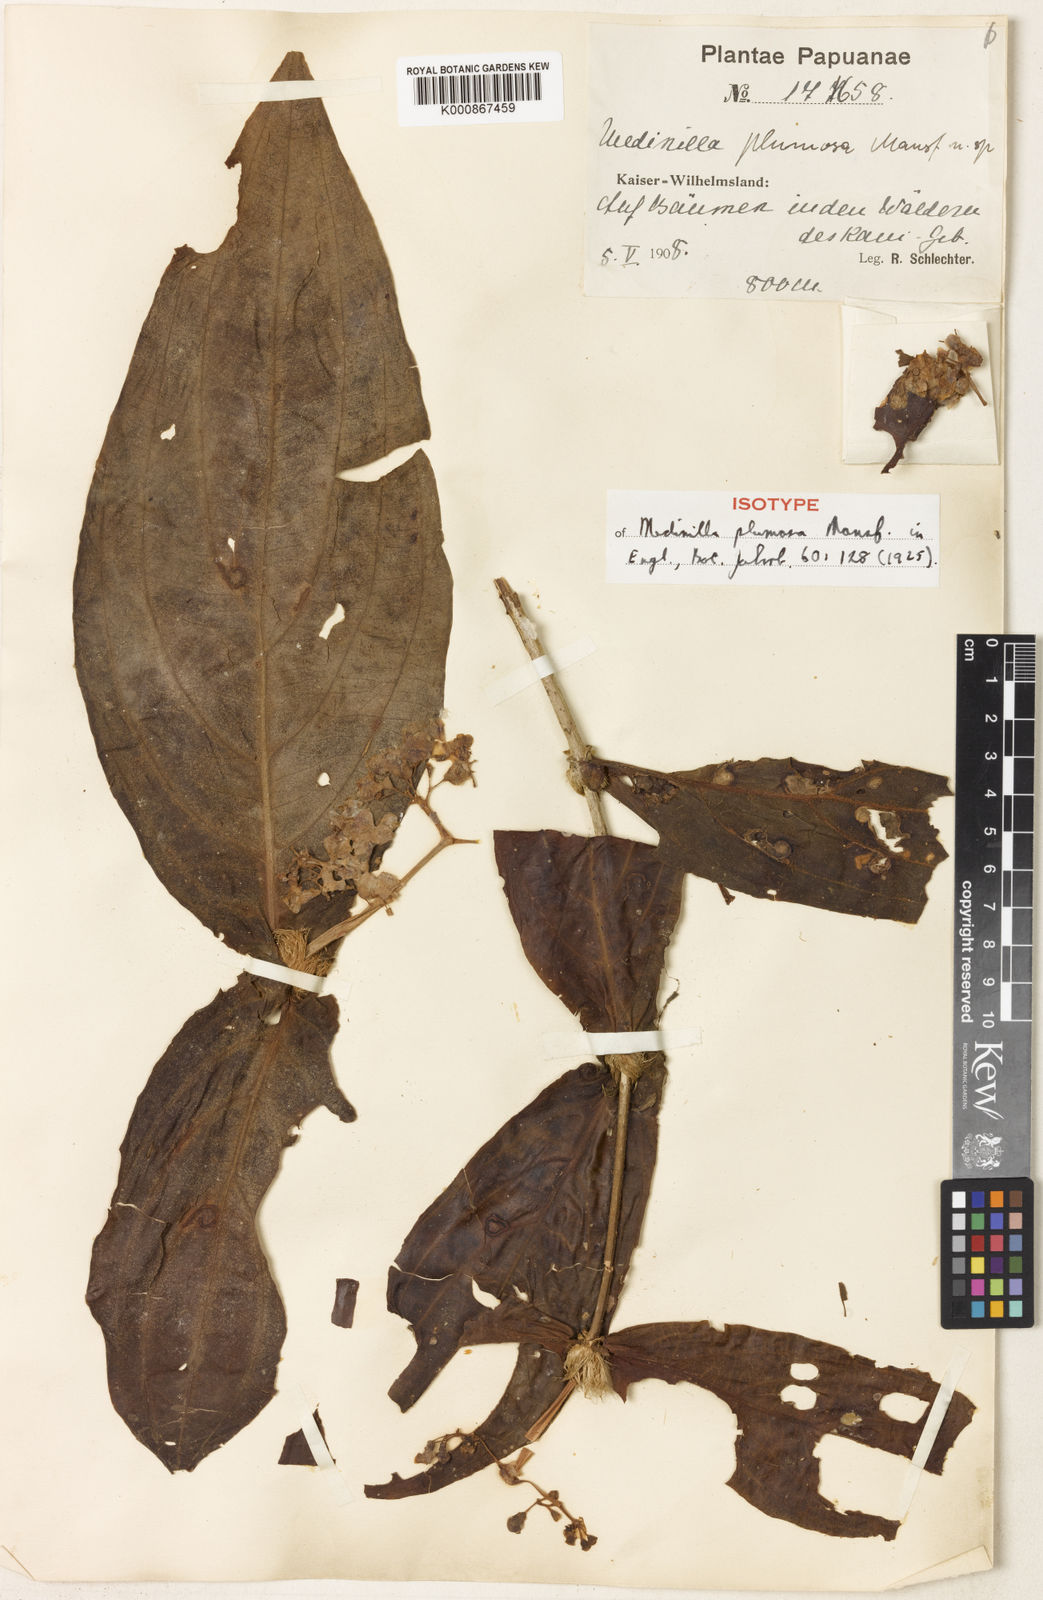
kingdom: Plantae
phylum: Tracheophyta
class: Magnoliopsida
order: Myrtales
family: Melastomataceae
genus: Medinilla
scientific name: Medinilla plumosa
